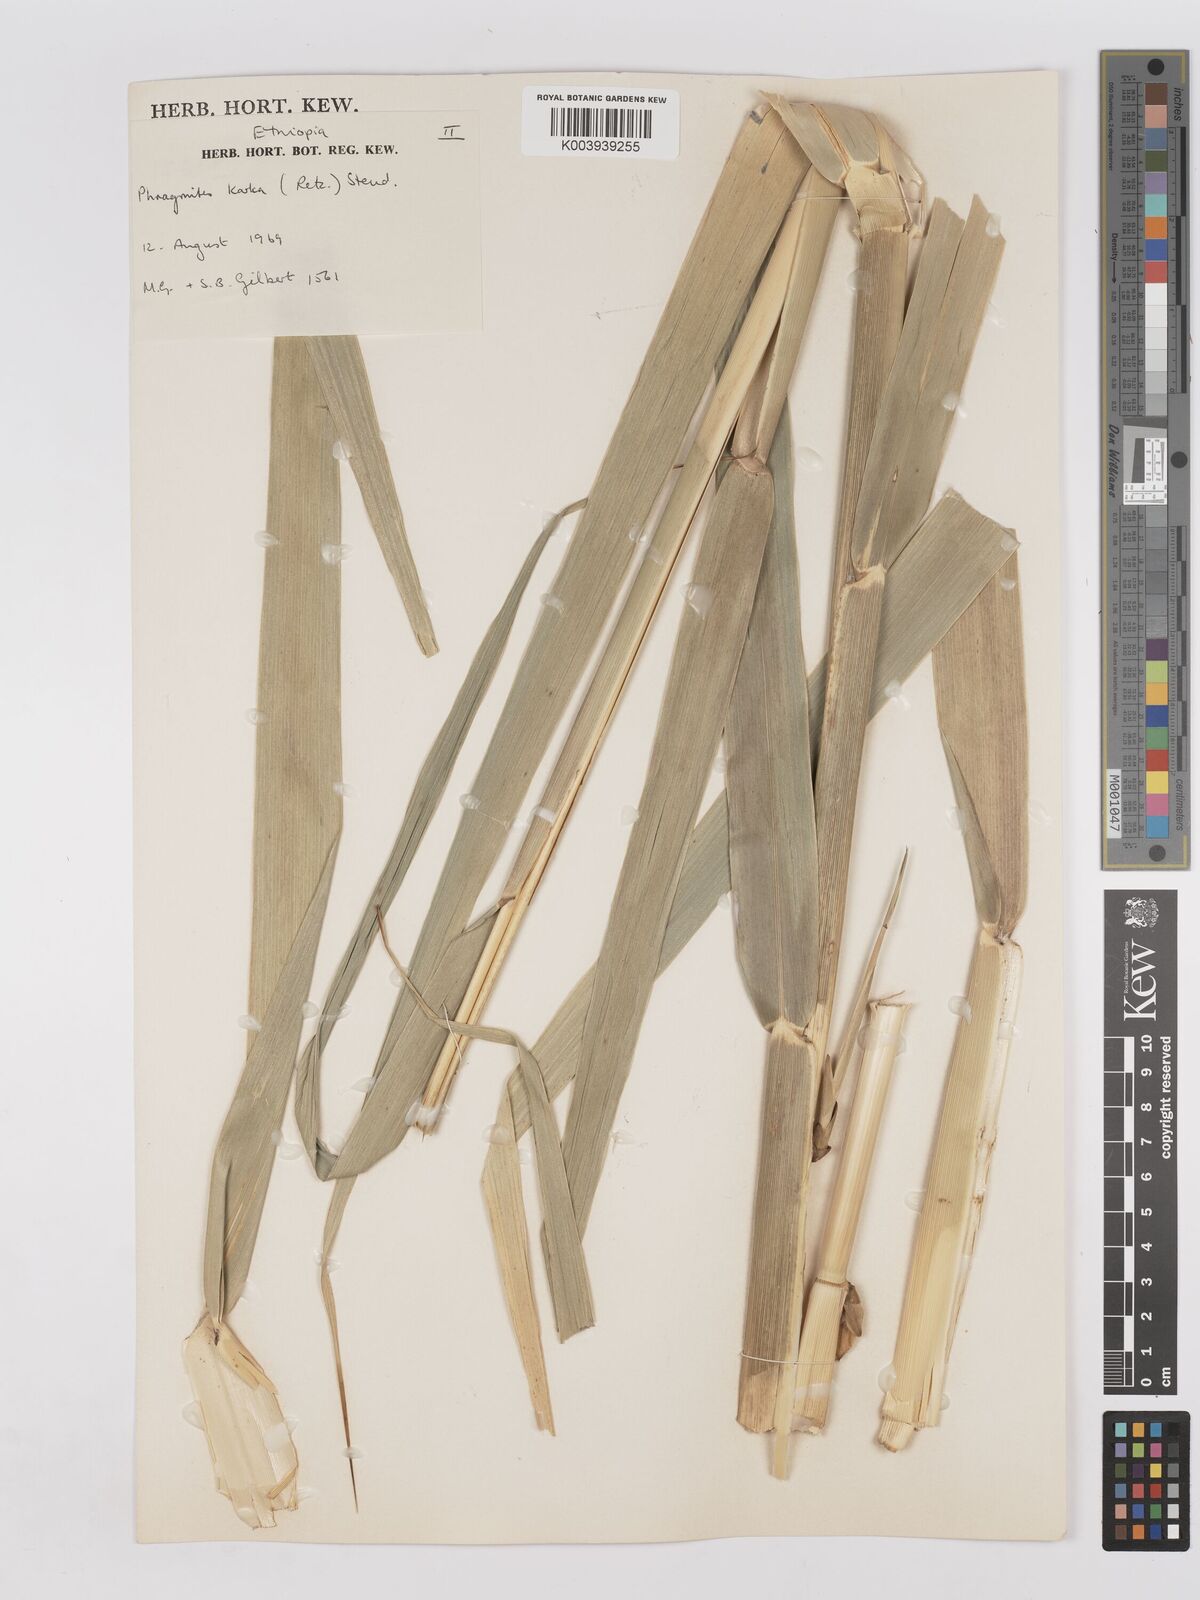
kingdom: Plantae
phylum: Tracheophyta
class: Liliopsida
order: Poales
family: Poaceae
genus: Phragmites
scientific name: Phragmites karka
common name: Tropical reed
